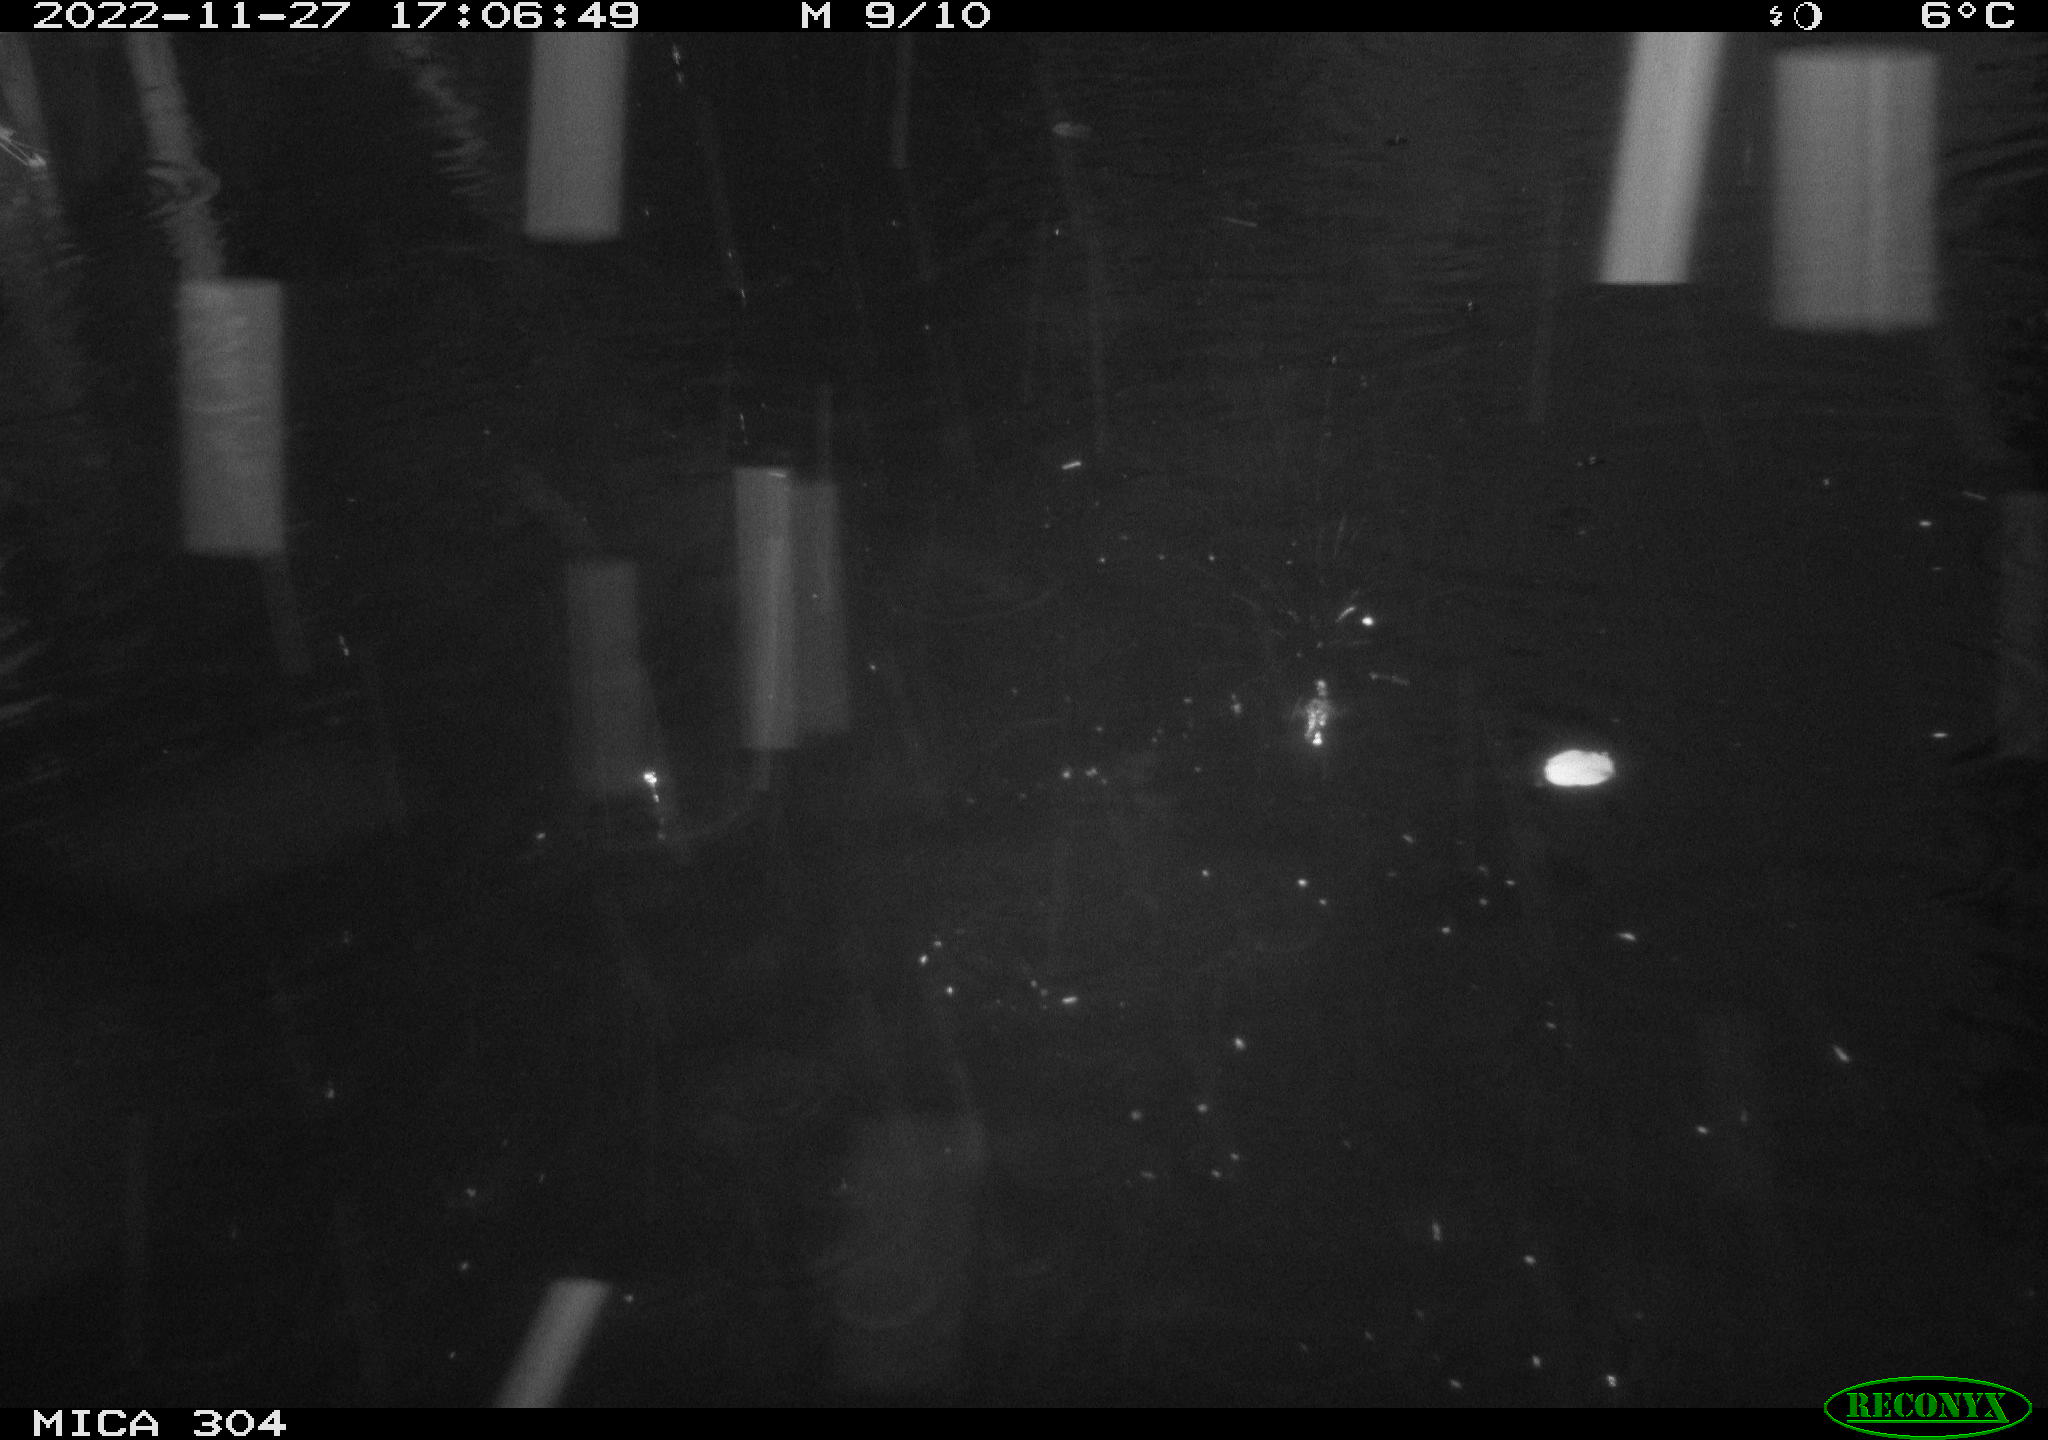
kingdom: Animalia
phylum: Chordata
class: Mammalia
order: Rodentia
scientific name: Rodentia
